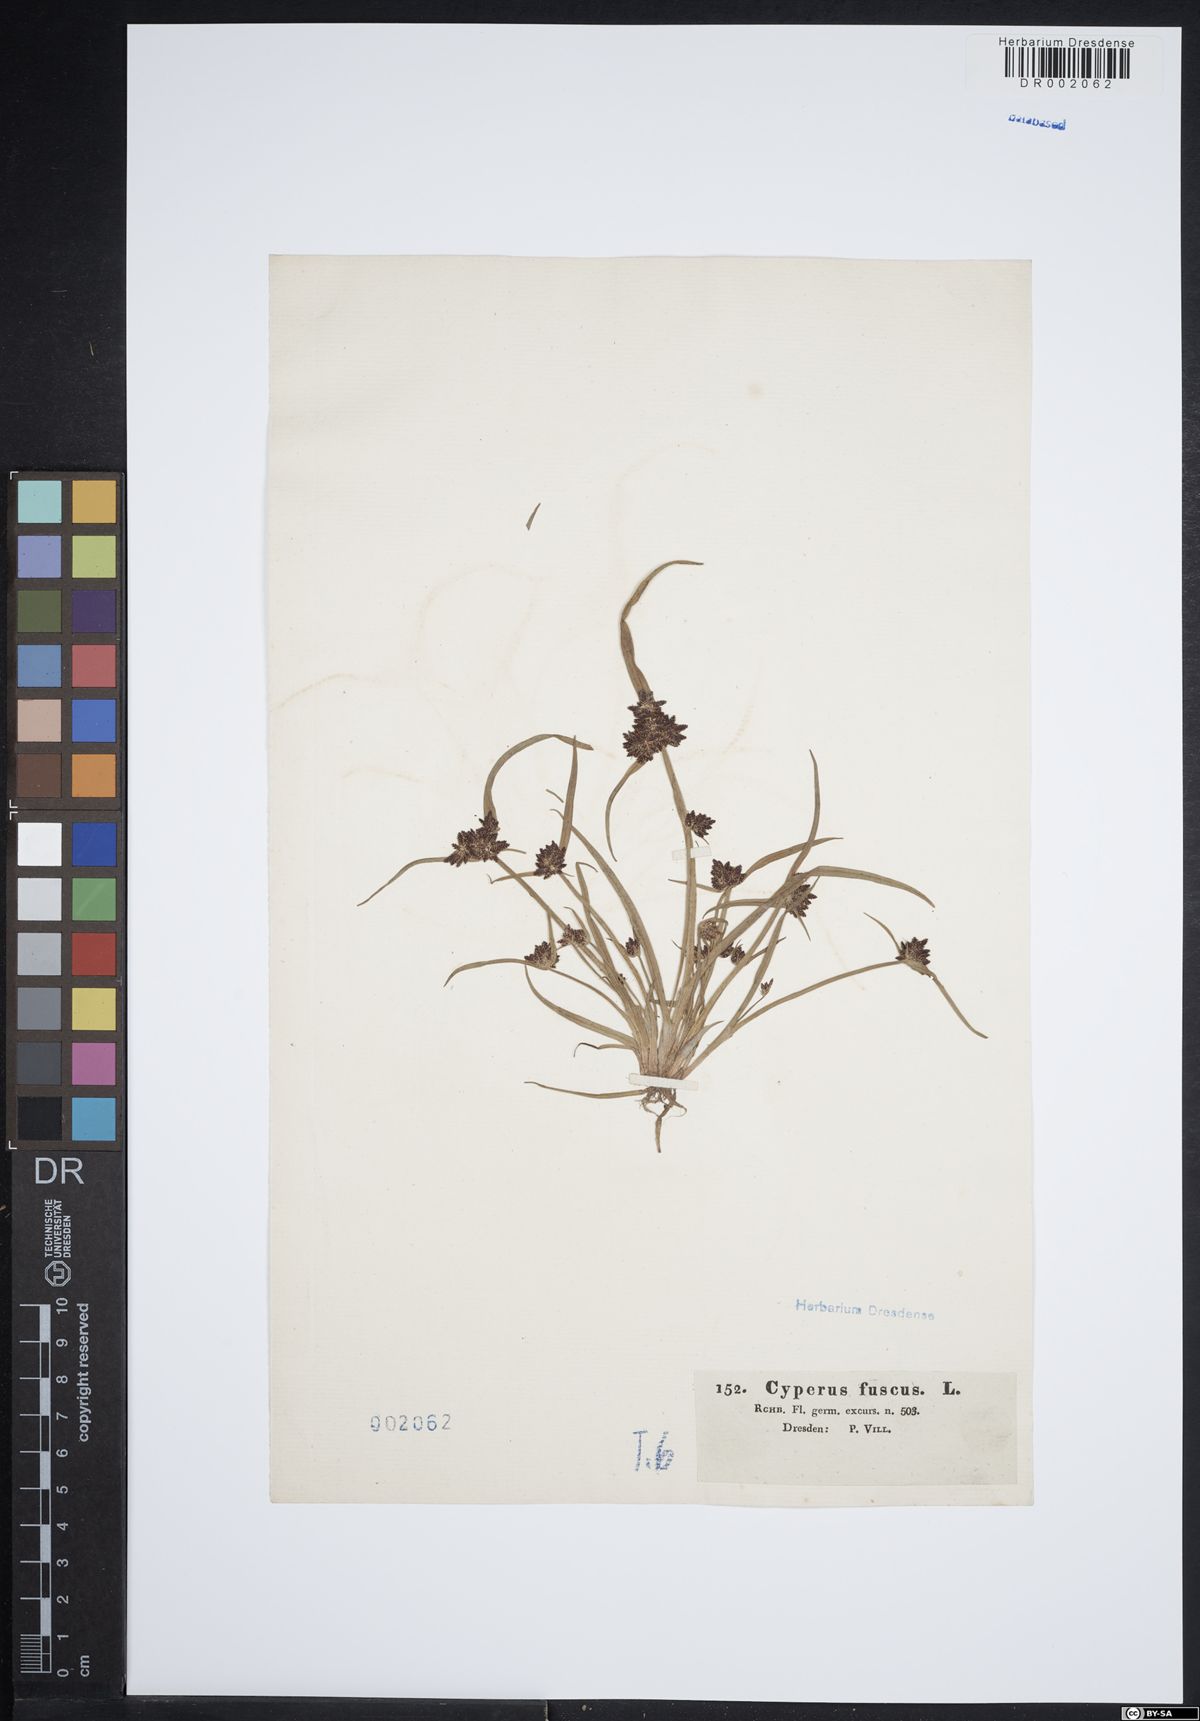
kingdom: Plantae
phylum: Tracheophyta
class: Liliopsida
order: Poales
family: Cyperaceae
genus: Cyperus
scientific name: Cyperus fuscus
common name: Brown galingale
